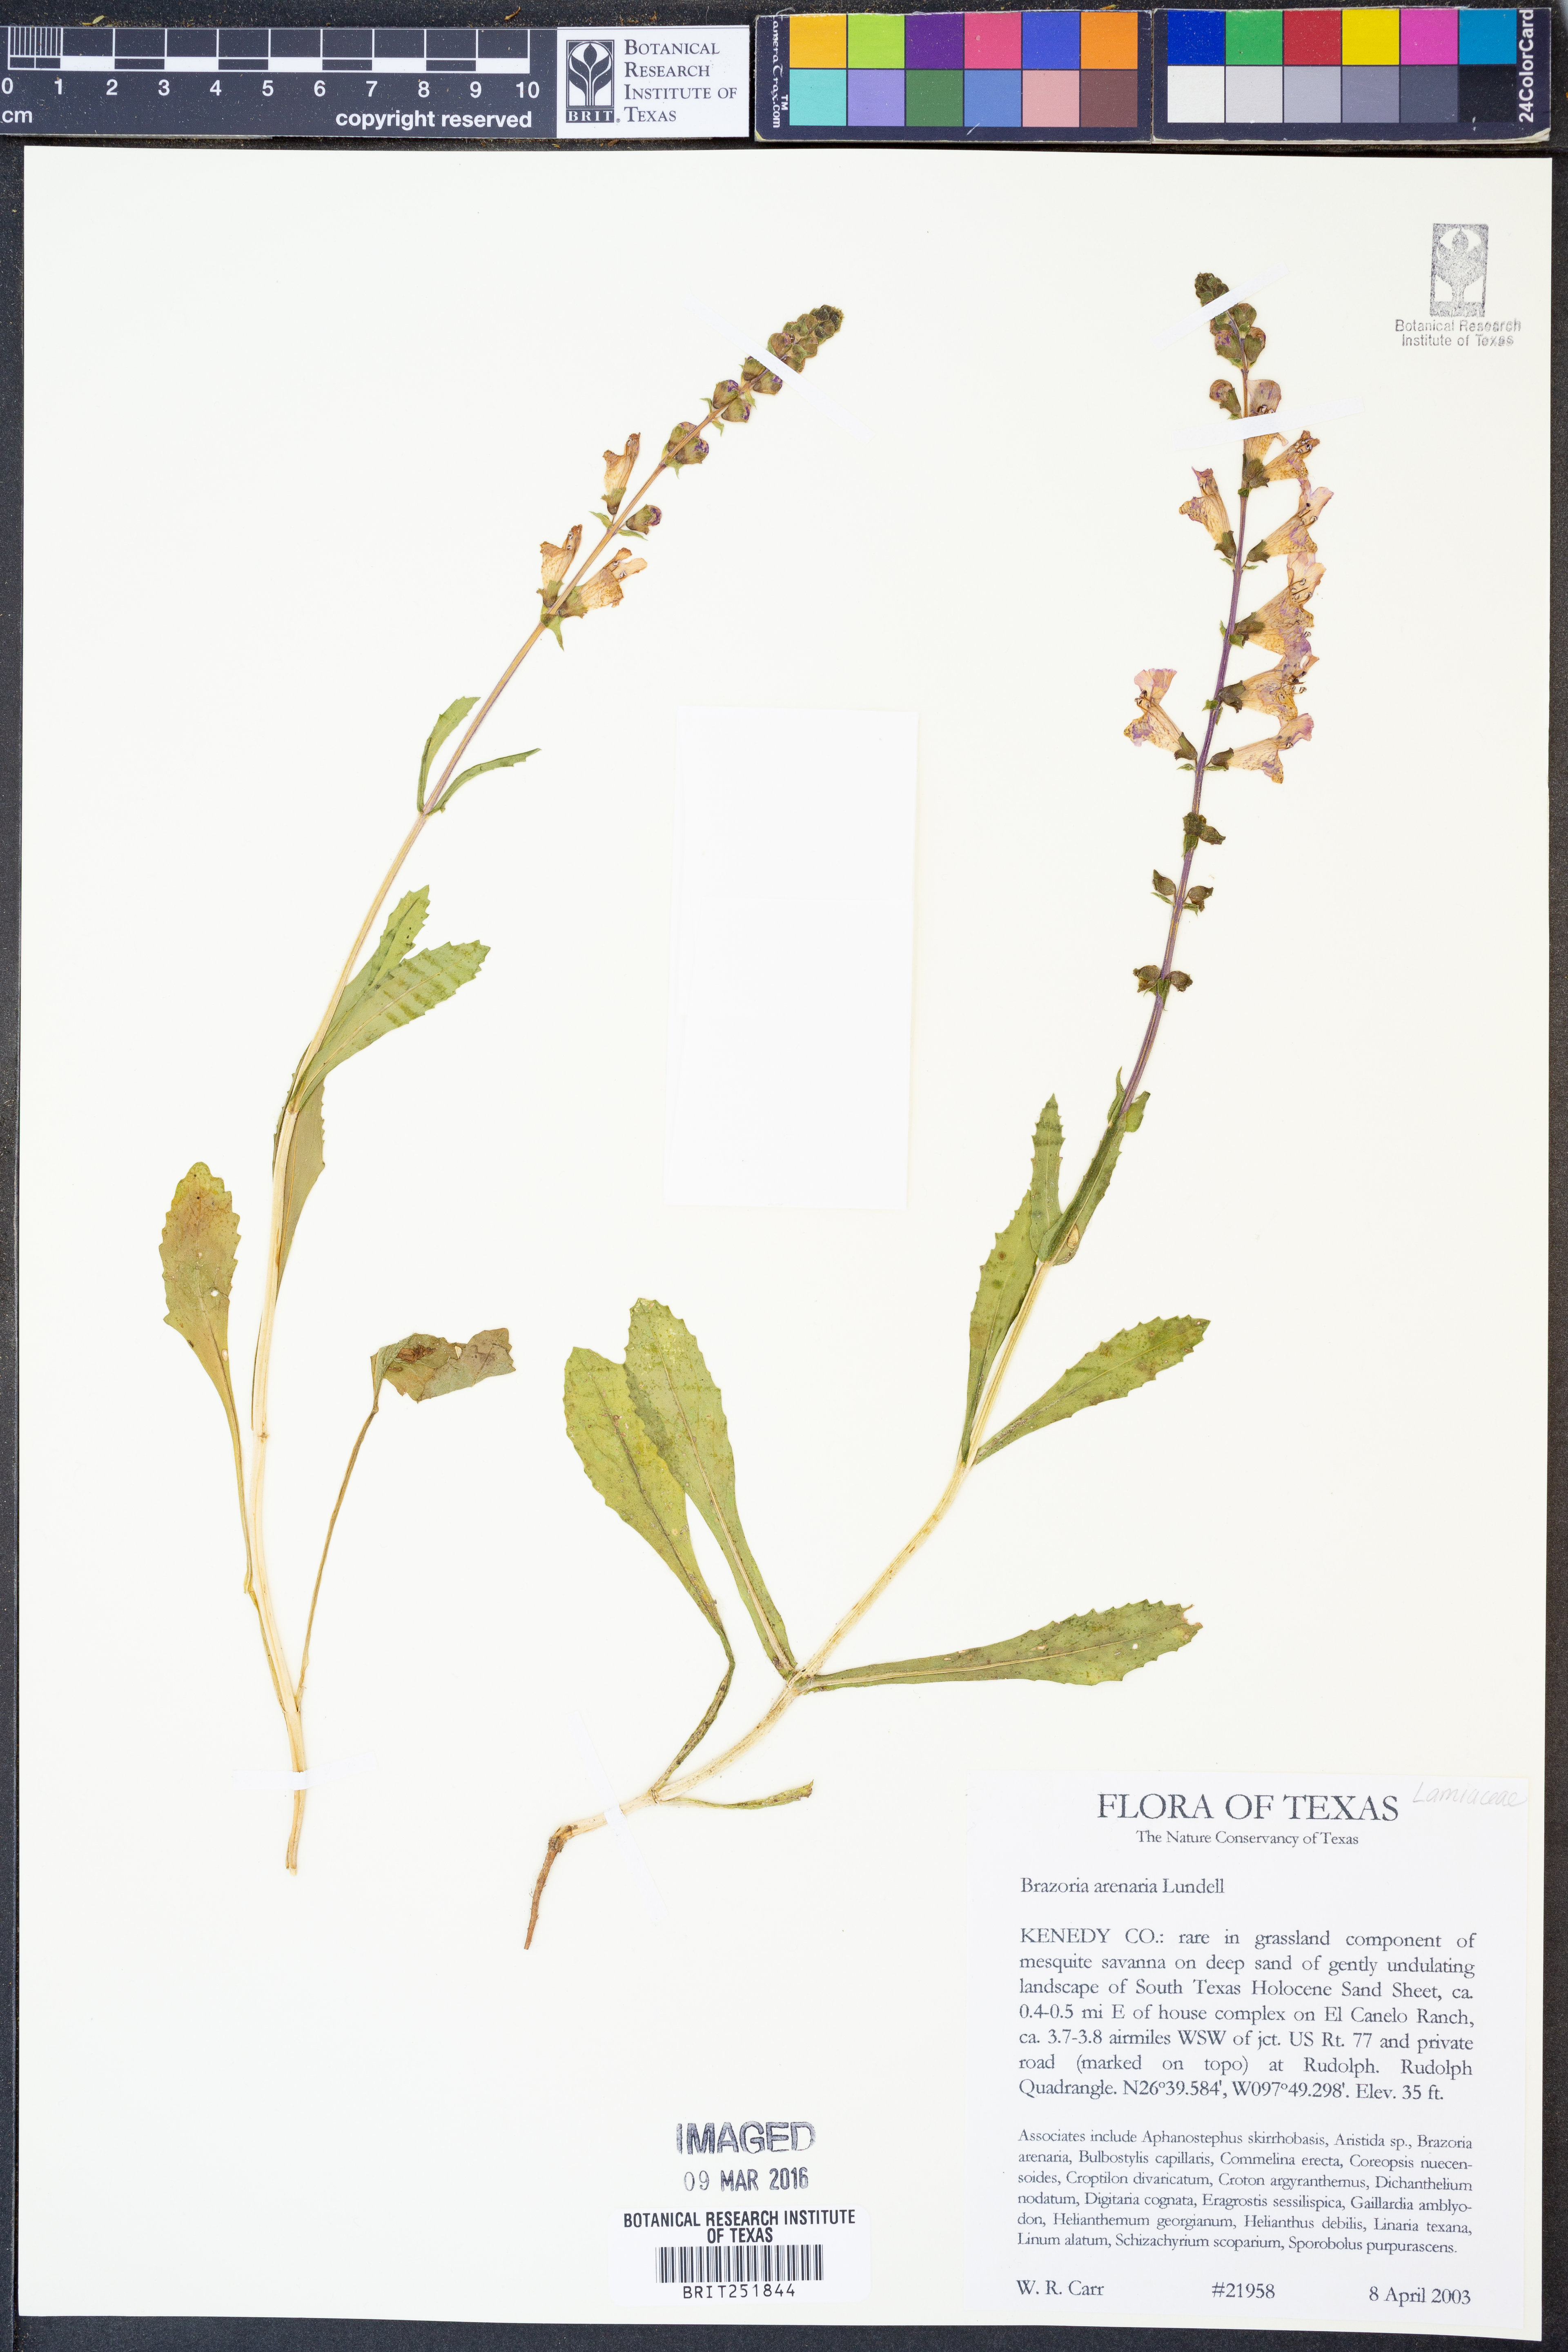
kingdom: Plantae
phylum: Tracheophyta
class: Magnoliopsida
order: Lamiales
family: Lamiaceae
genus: Brazoria
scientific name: Brazoria arenaria
